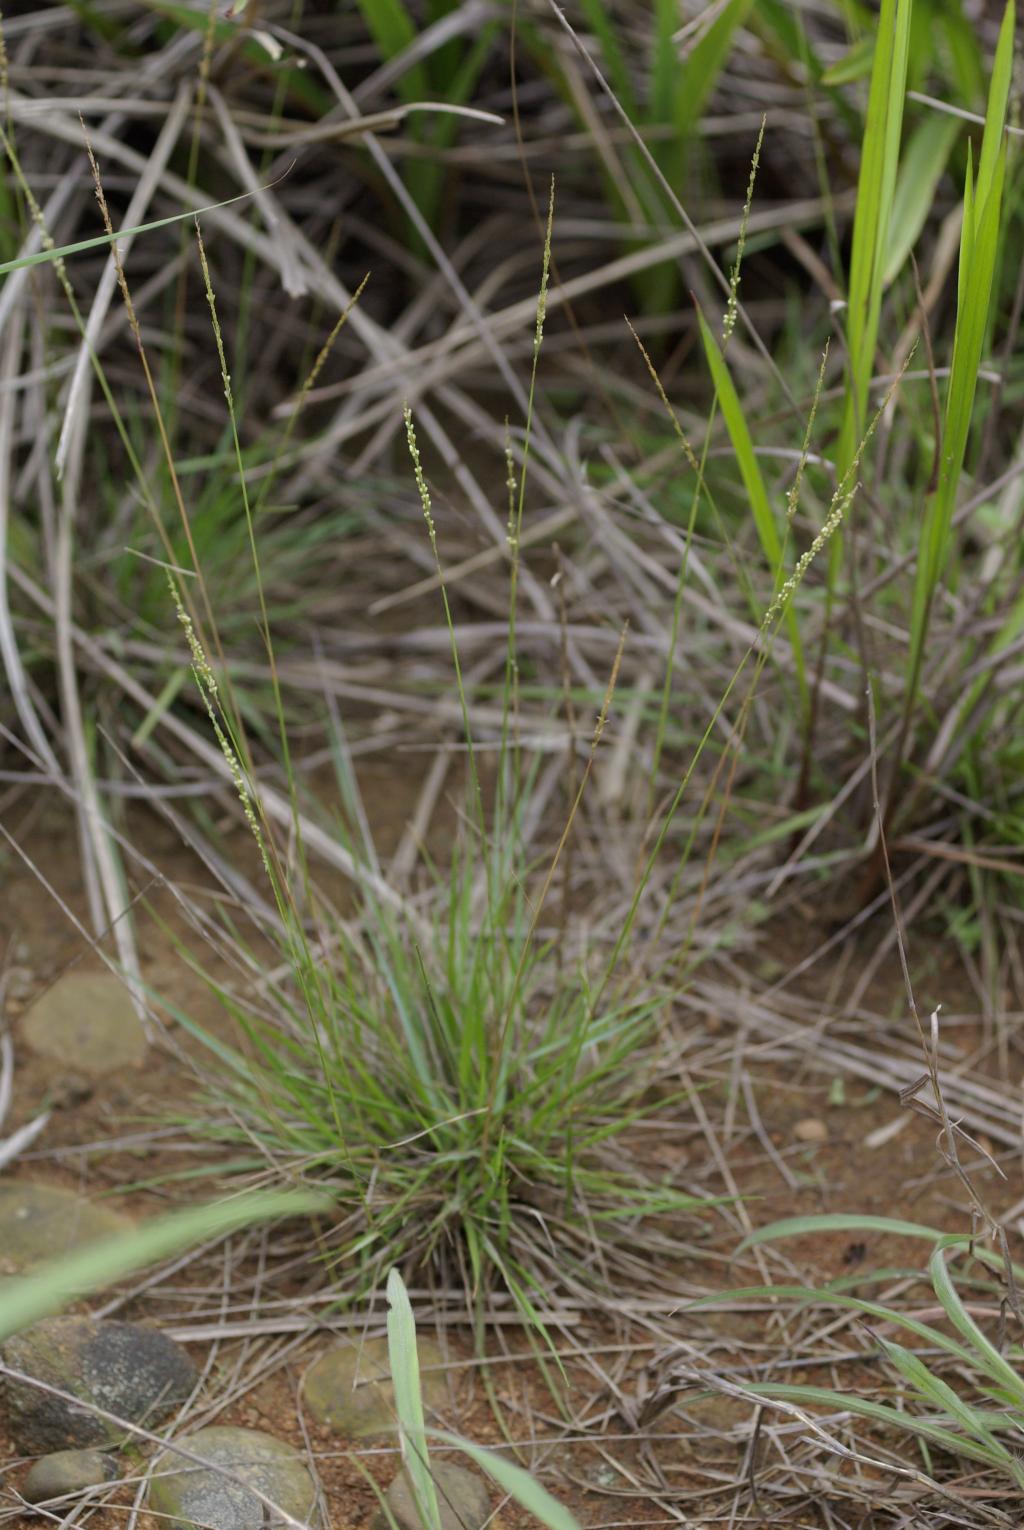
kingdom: Plantae
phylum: Tracheophyta
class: Liliopsida
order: Poales
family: Poaceae
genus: Sporobolus
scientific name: Sporobolus hancei
